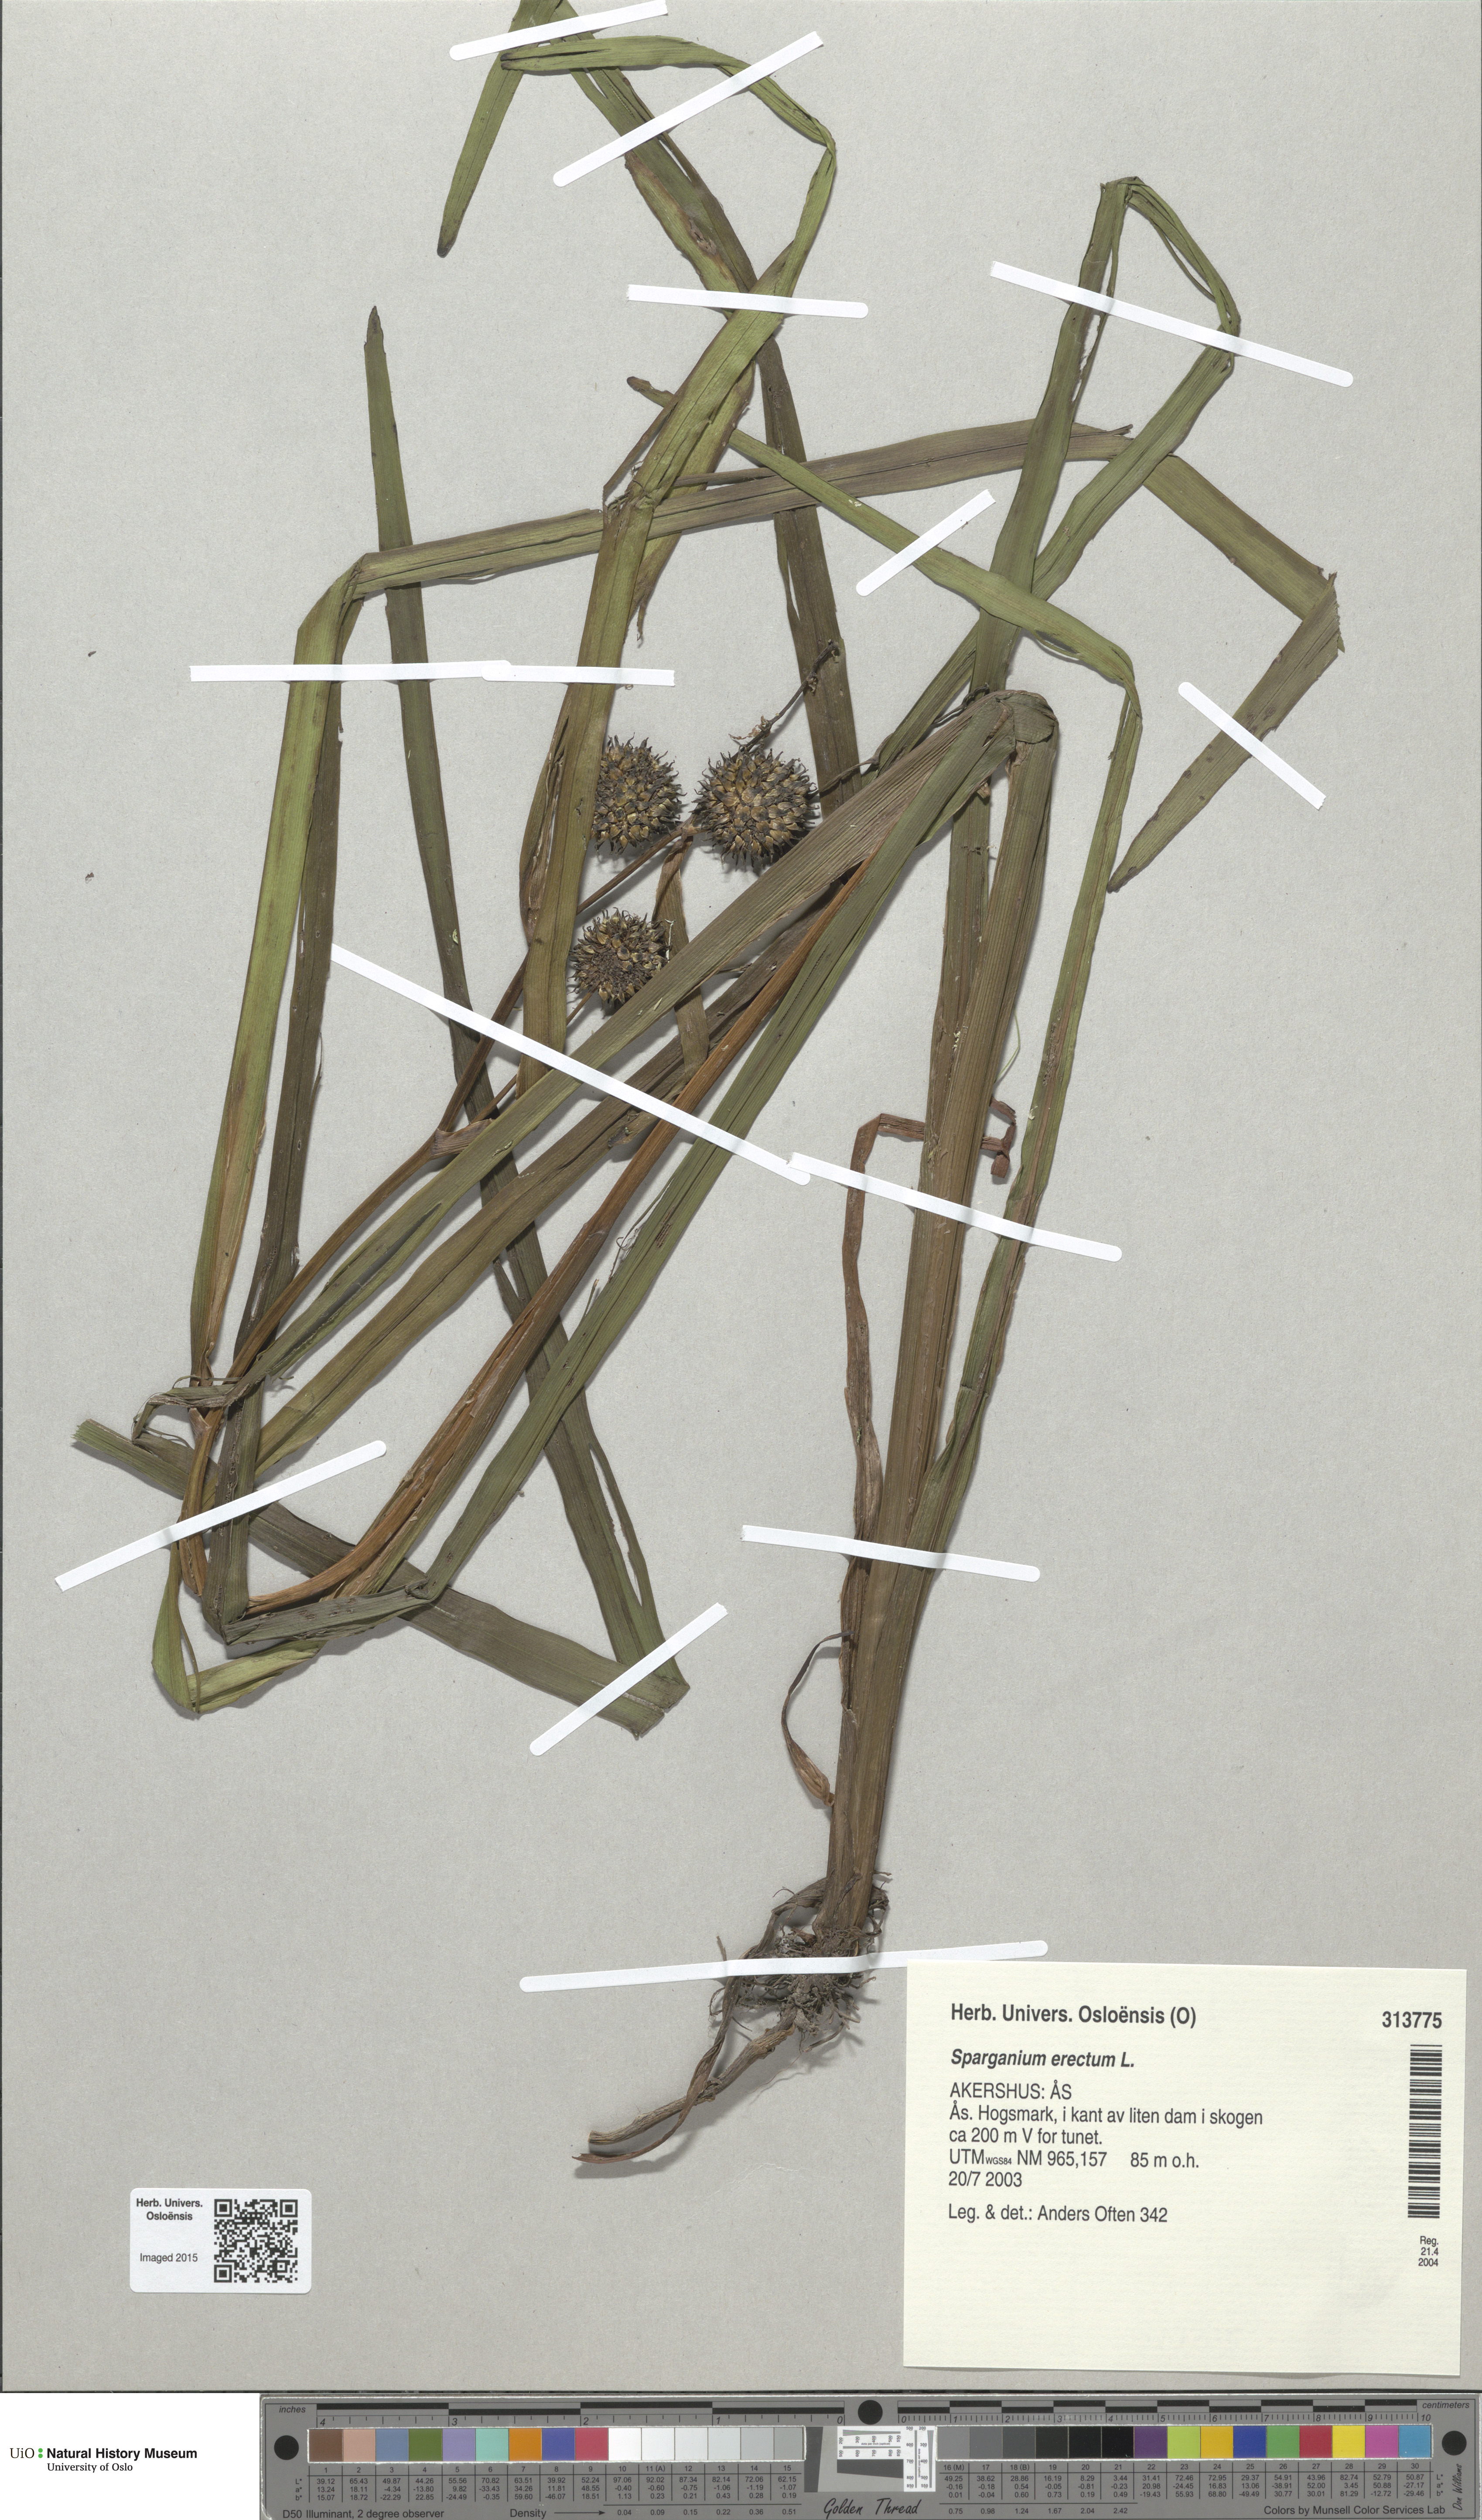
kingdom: Plantae
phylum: Tracheophyta
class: Liliopsida
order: Poales
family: Typhaceae
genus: Sparganium
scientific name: Sparganium erectum
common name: Branched bur-reed
